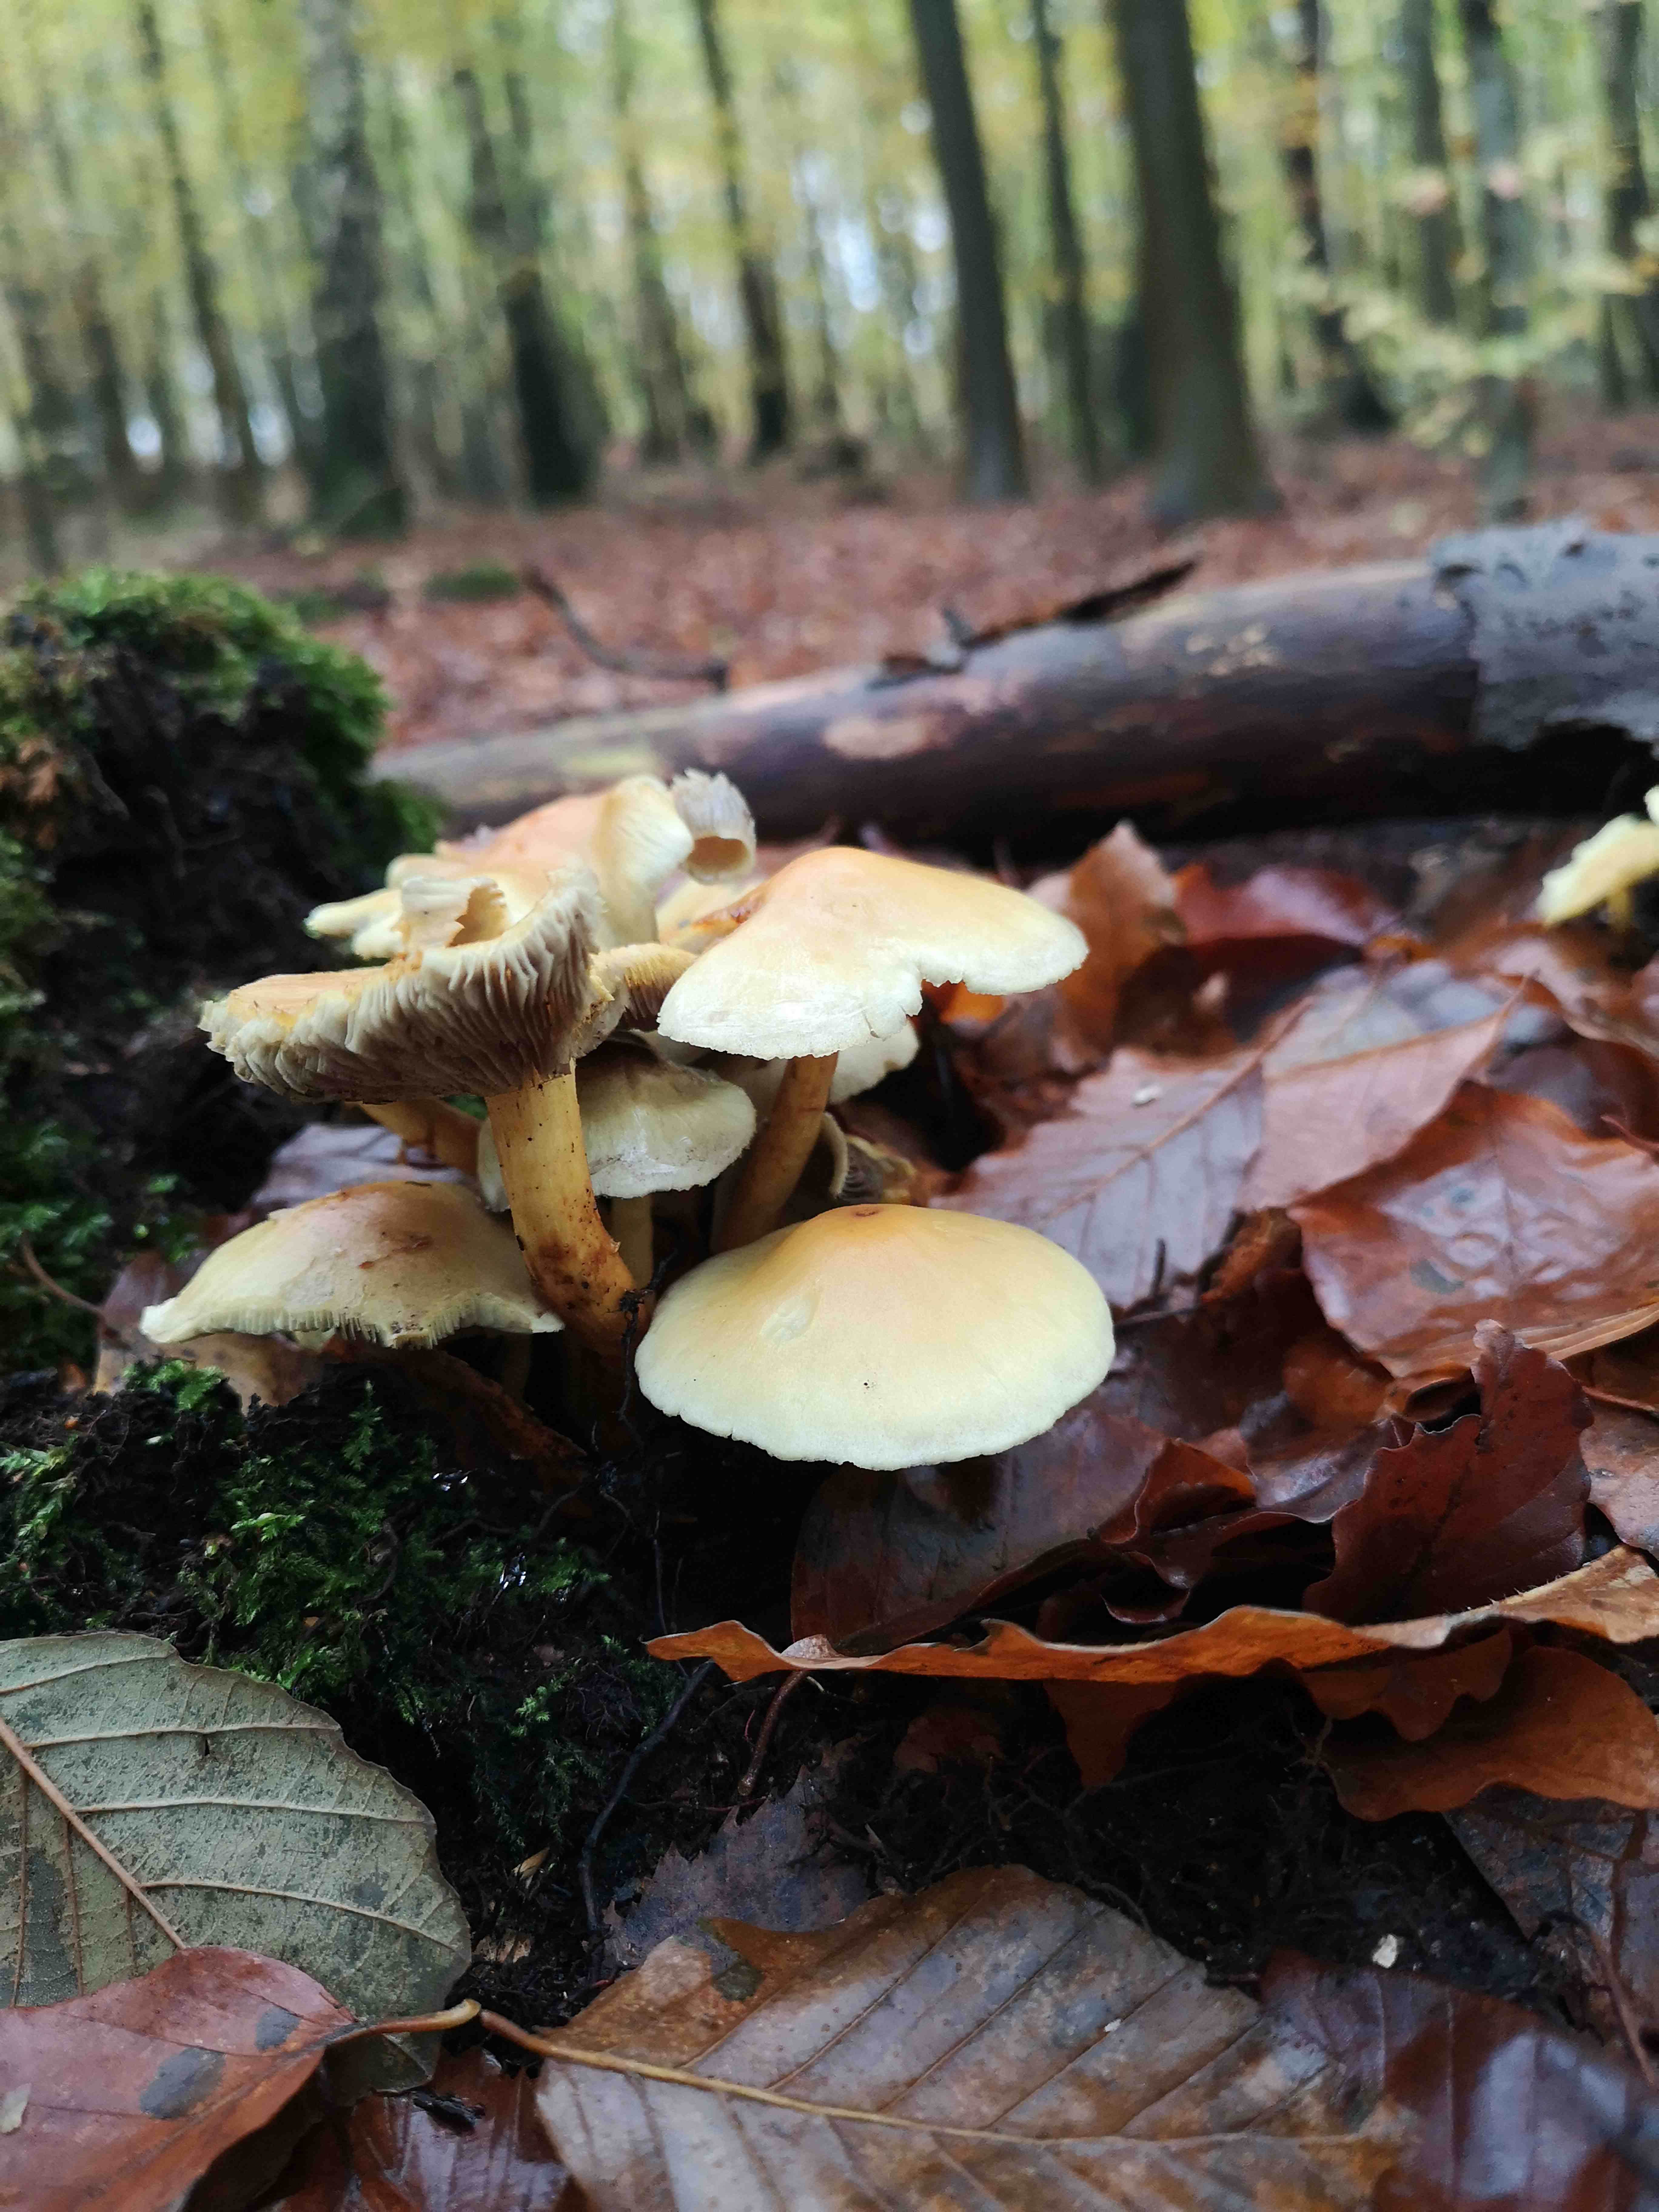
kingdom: Fungi
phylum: Basidiomycota
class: Agaricomycetes
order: Agaricales
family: Strophariaceae
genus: Hypholoma
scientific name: Hypholoma fasciculare
